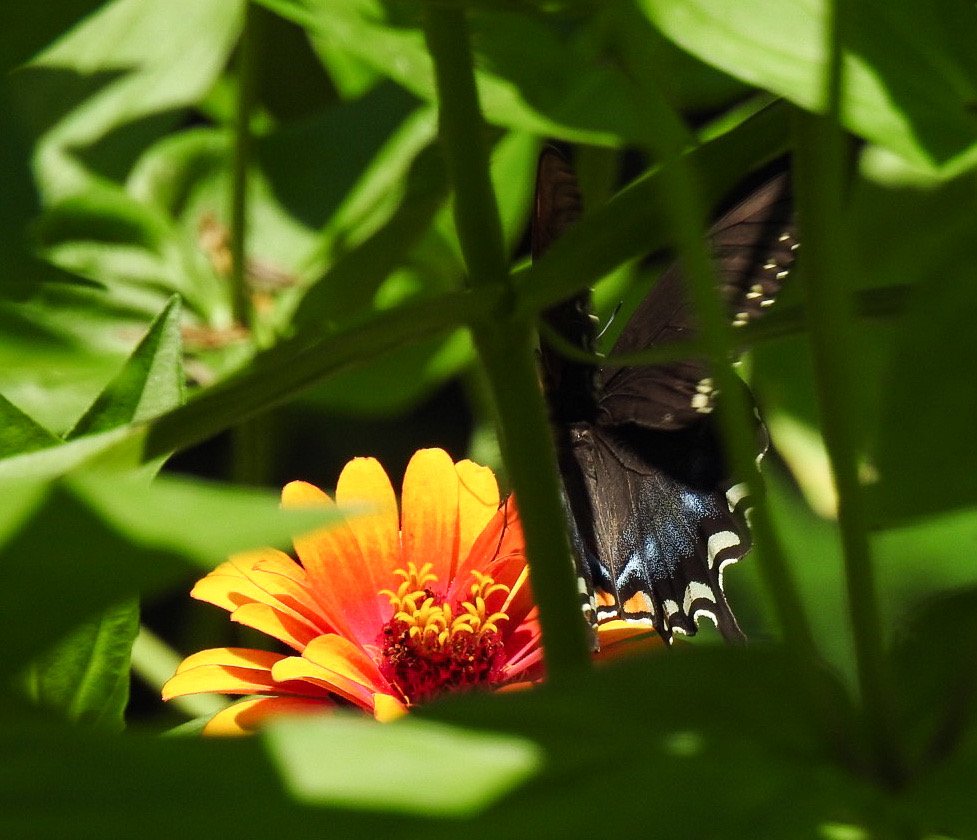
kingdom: Animalia
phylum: Arthropoda
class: Insecta
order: Lepidoptera
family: Papilionidae
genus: Pterourus
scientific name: Pterourus troilus
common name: Spicebush Swallowtail
